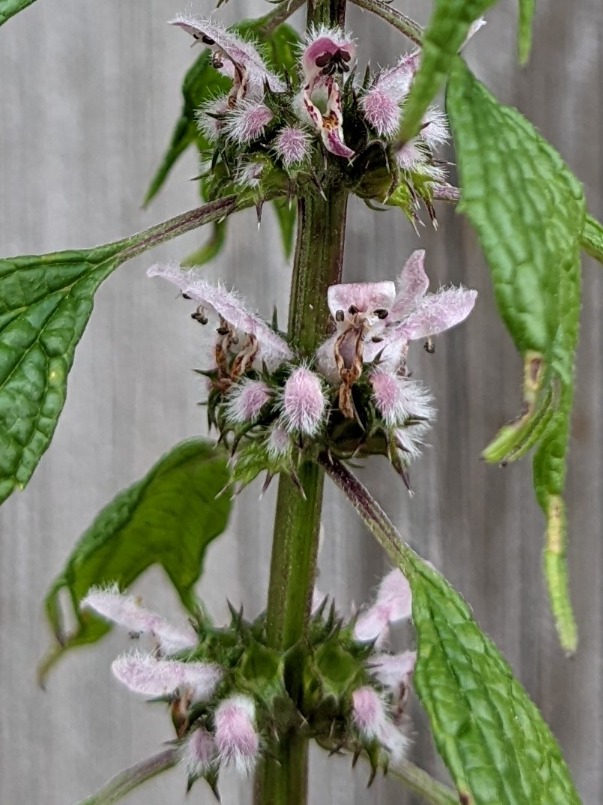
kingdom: Plantae
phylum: Tracheophyta
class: Magnoliopsida
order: Lamiales
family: Lamiaceae
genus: Leonurus
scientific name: Leonurus cardiaca
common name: Hjertespand
